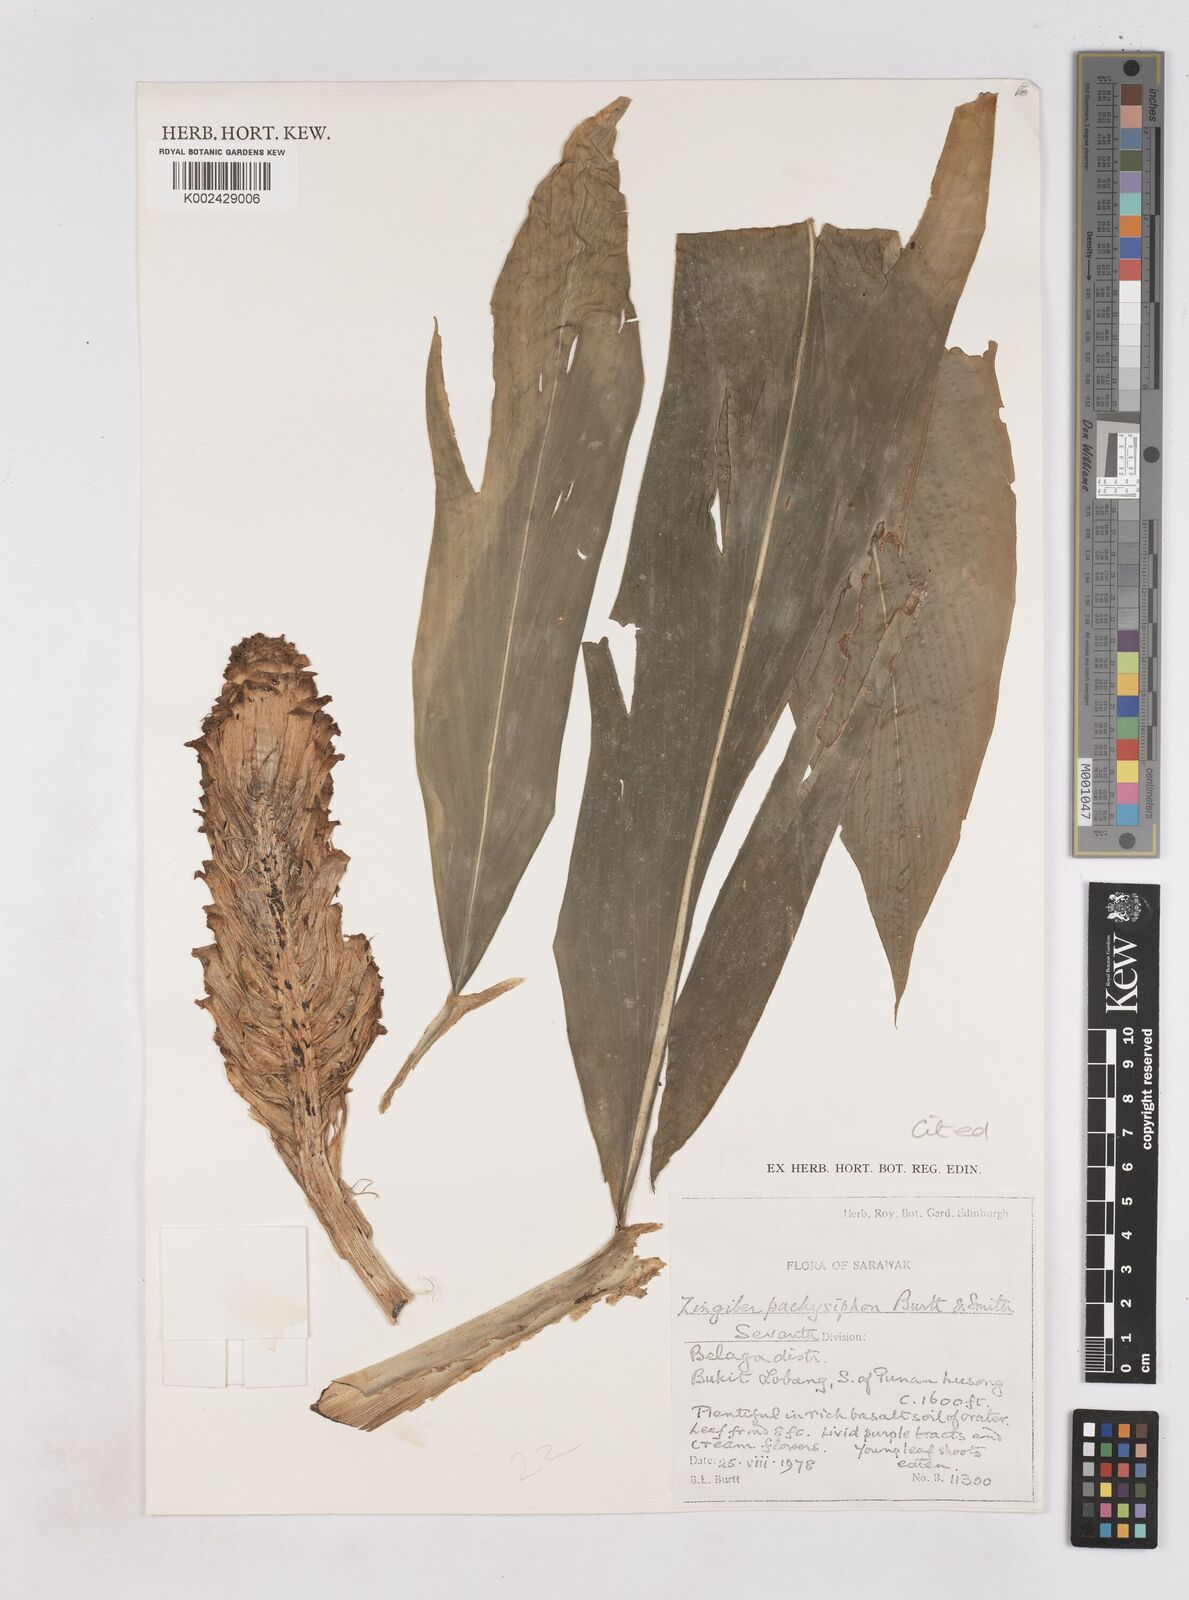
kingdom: Plantae
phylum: Tracheophyta
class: Liliopsida
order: Zingiberales
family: Zingiberaceae
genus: Zingiber
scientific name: Zingiber pachysiphon
